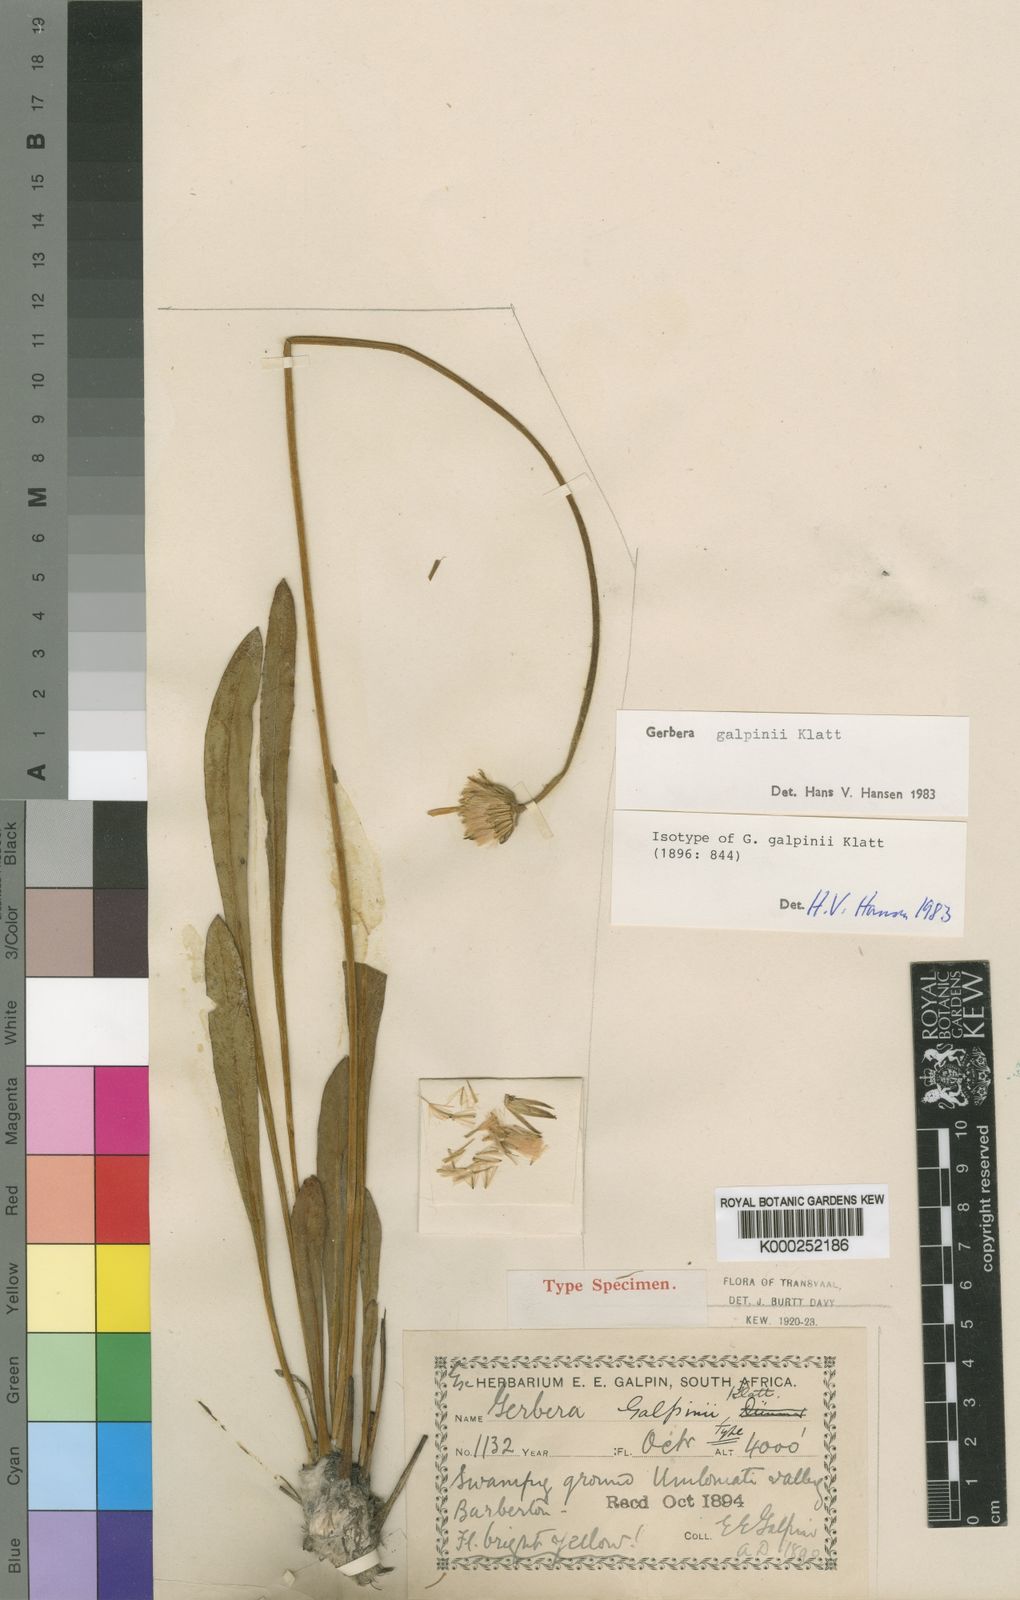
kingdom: Plantae
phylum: Tracheophyta
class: Magnoliopsida
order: Asterales
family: Asteraceae
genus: Gerbera
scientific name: Gerbera galpinii
